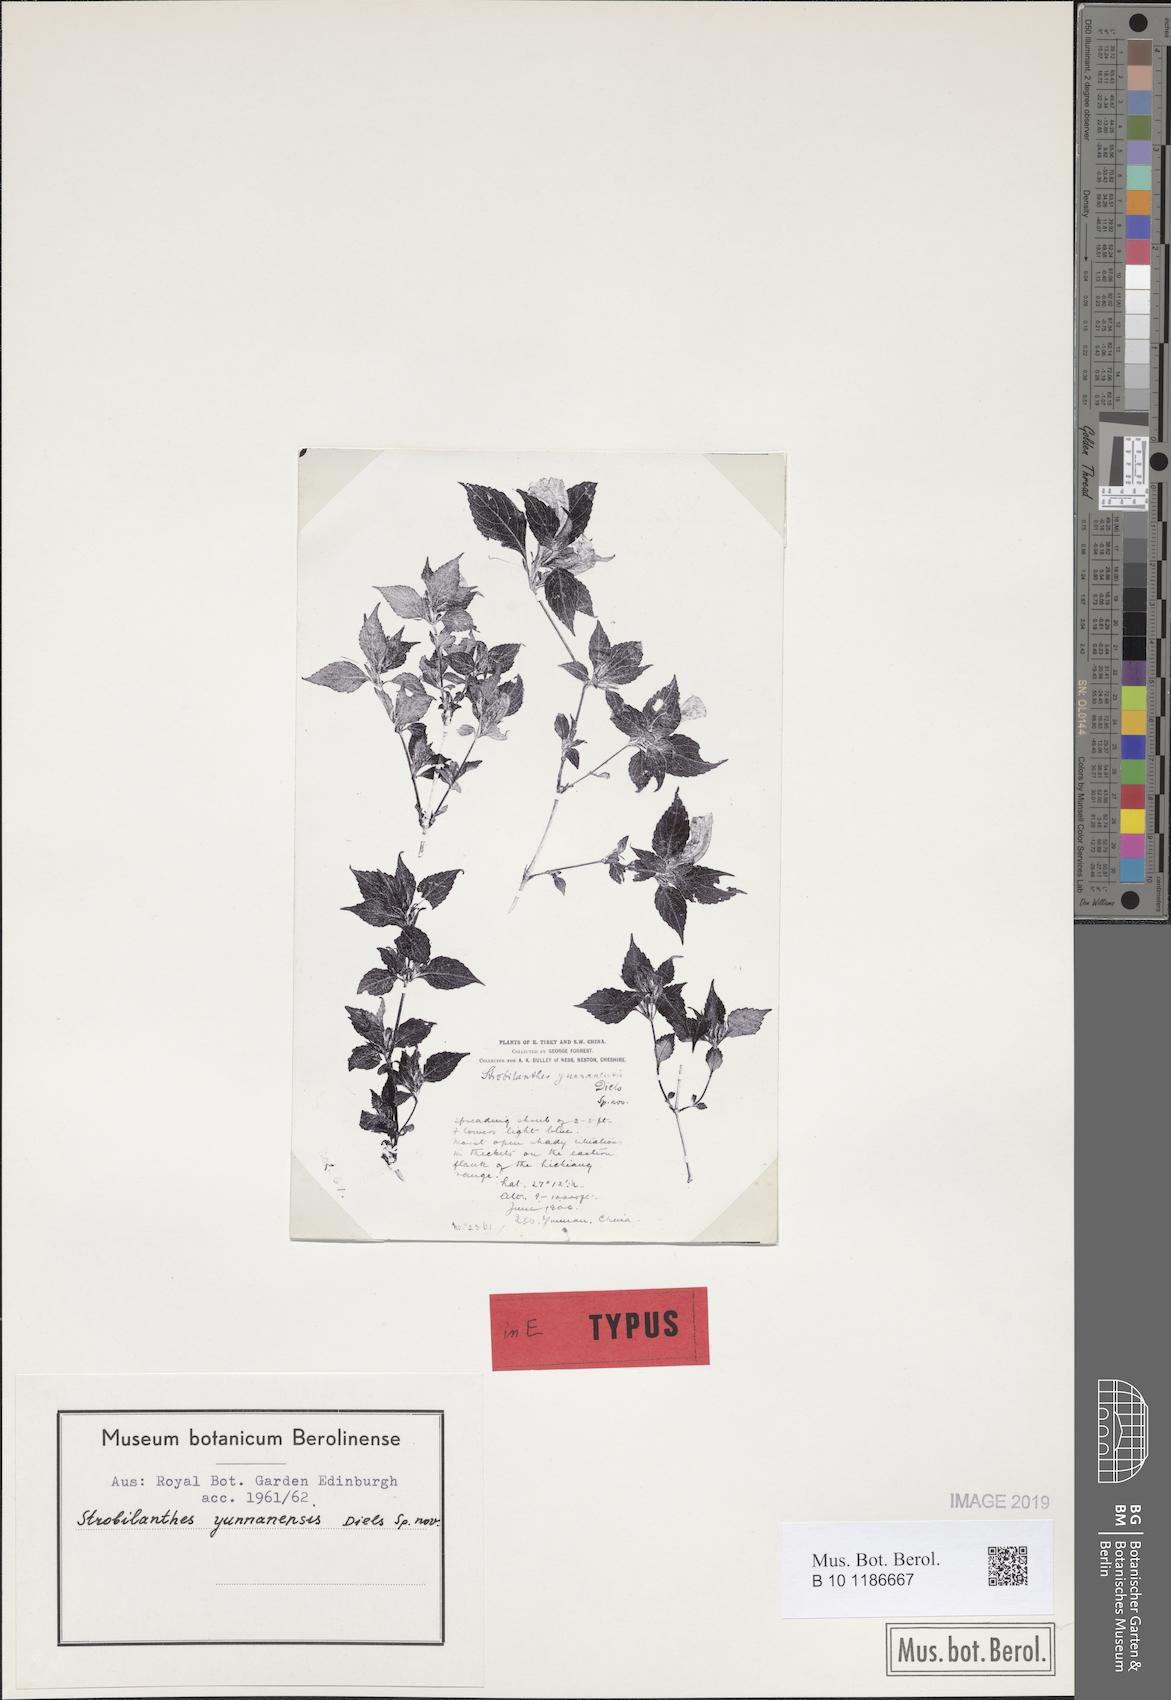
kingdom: Plantae
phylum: Tracheophyta
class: Magnoliopsida
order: Lamiales
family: Acanthaceae
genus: Strobilanthes
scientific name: Strobilanthes yunnanensis
